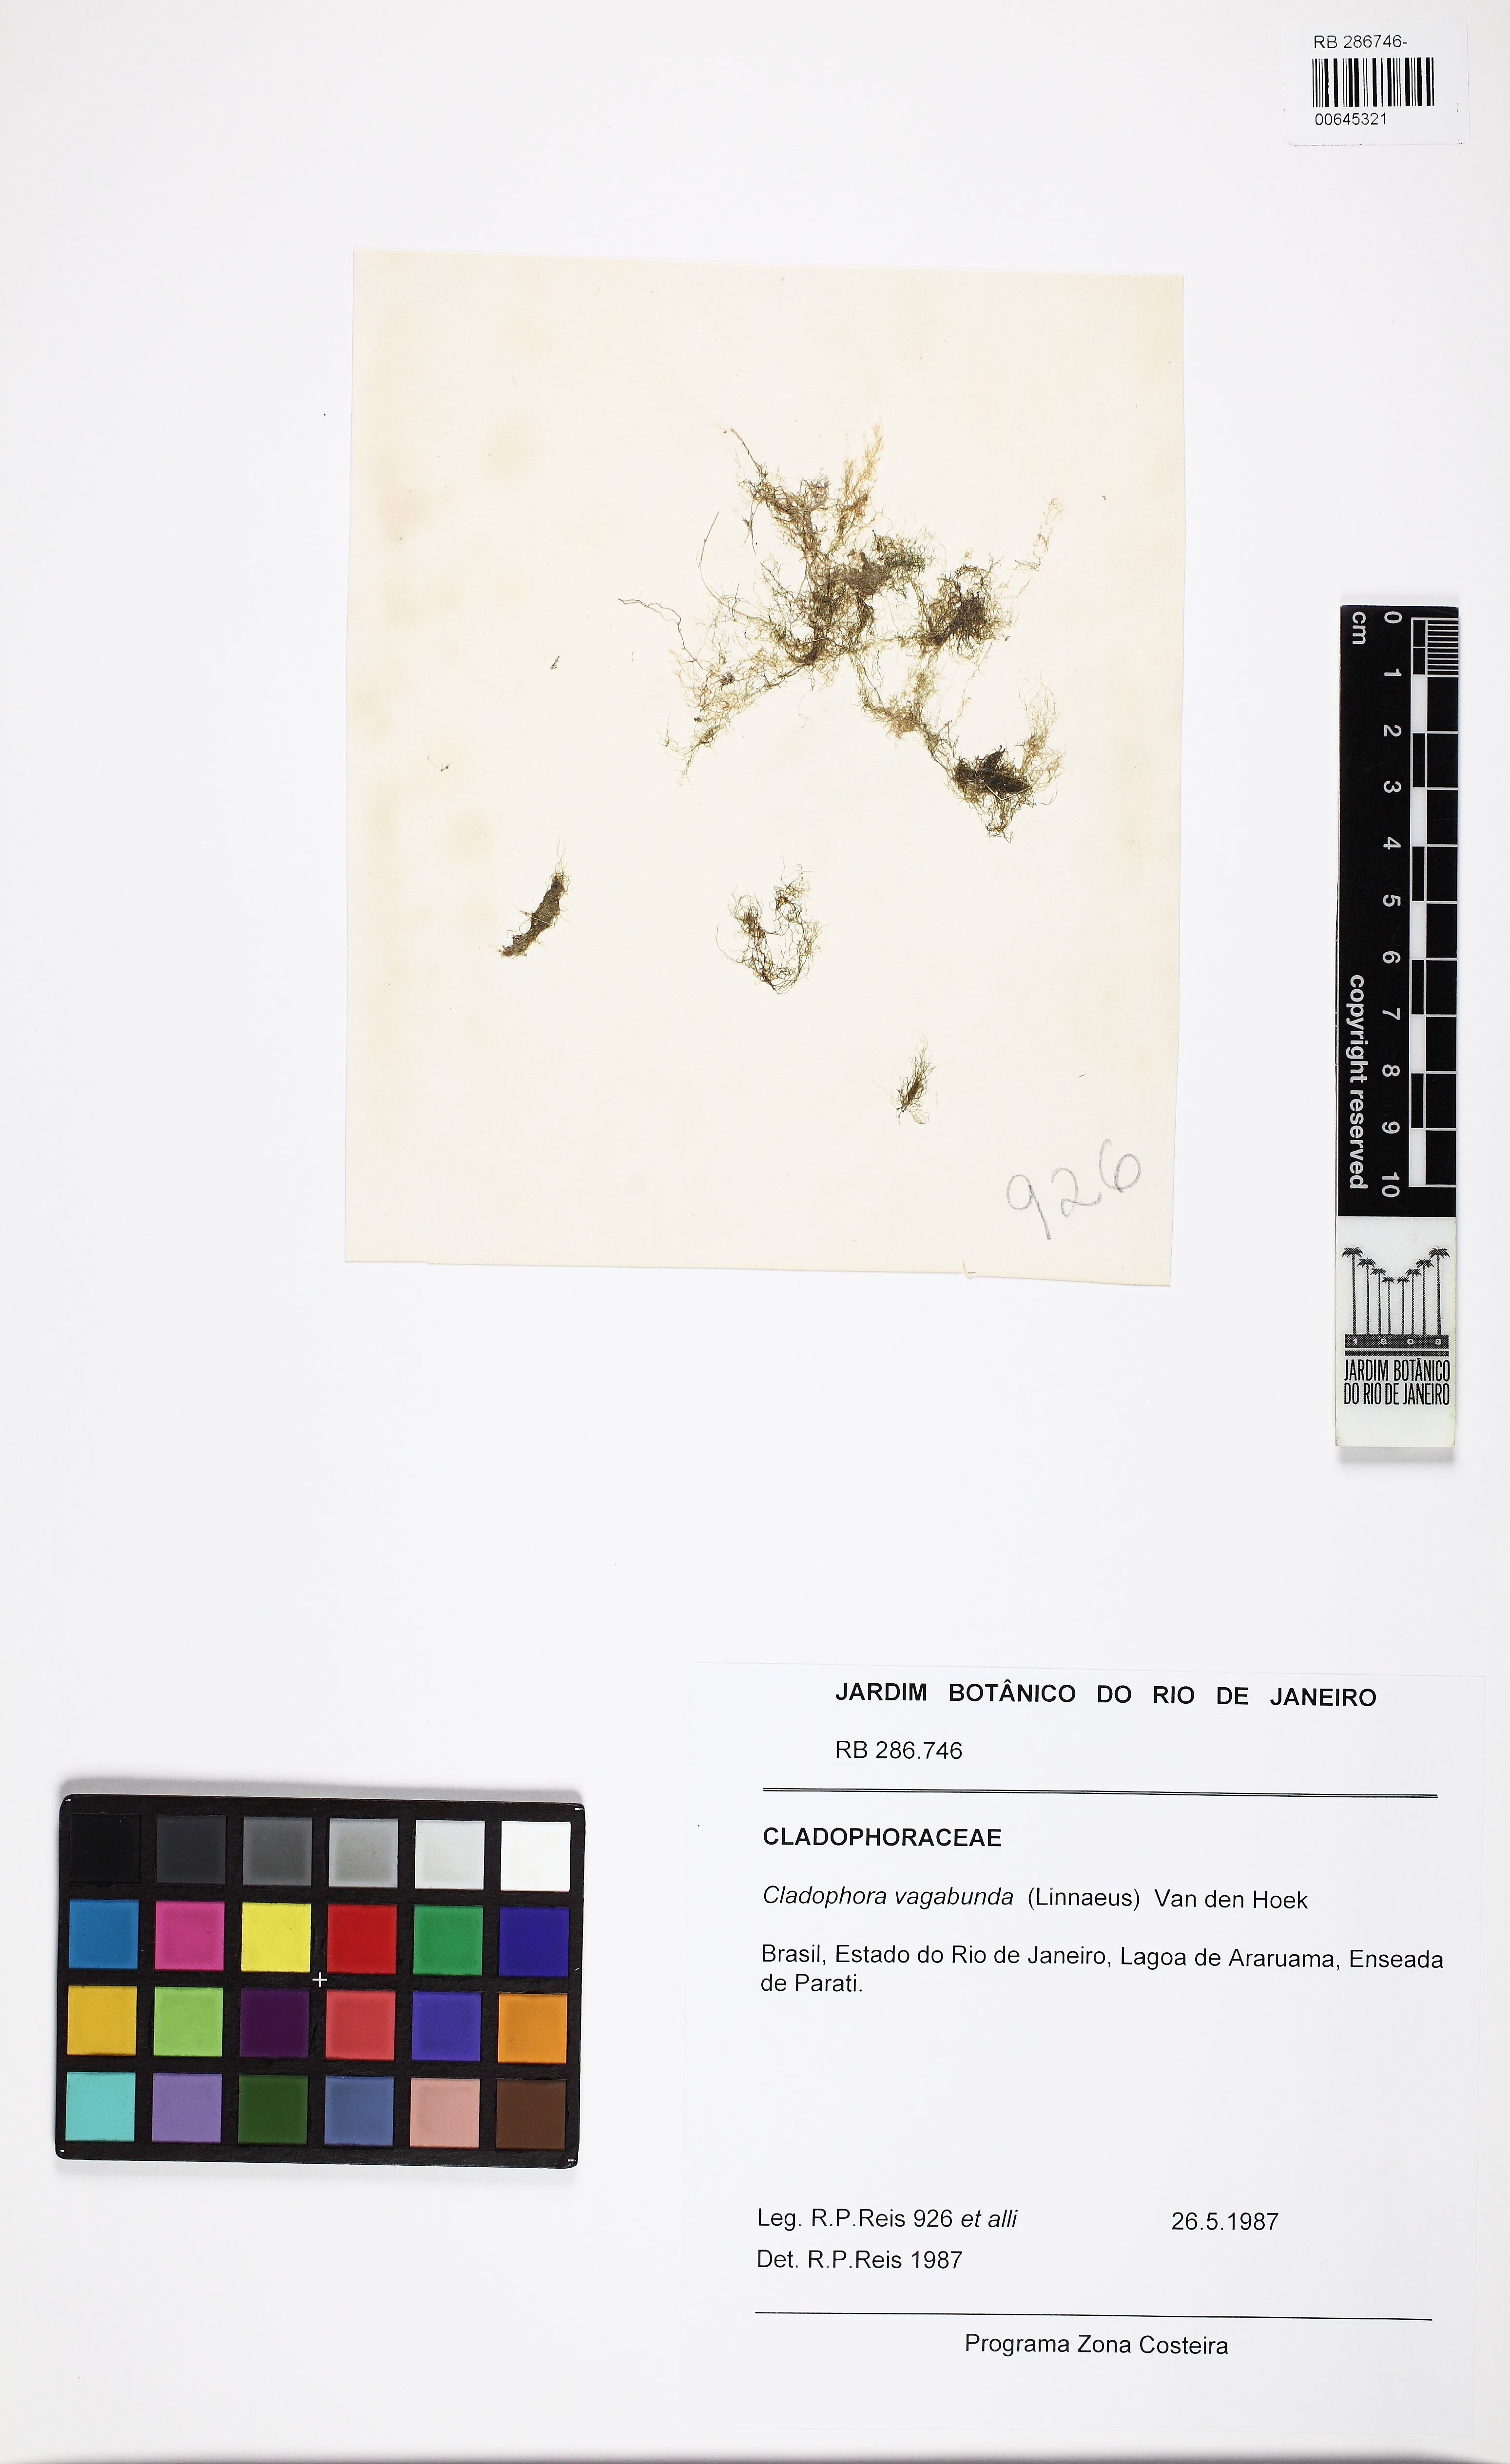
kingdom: Plantae
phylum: Chlorophyta
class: Ulvophyceae
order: Cladophorales
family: Cladophoraceae
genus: Cladophora
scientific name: Cladophora vagabunda
